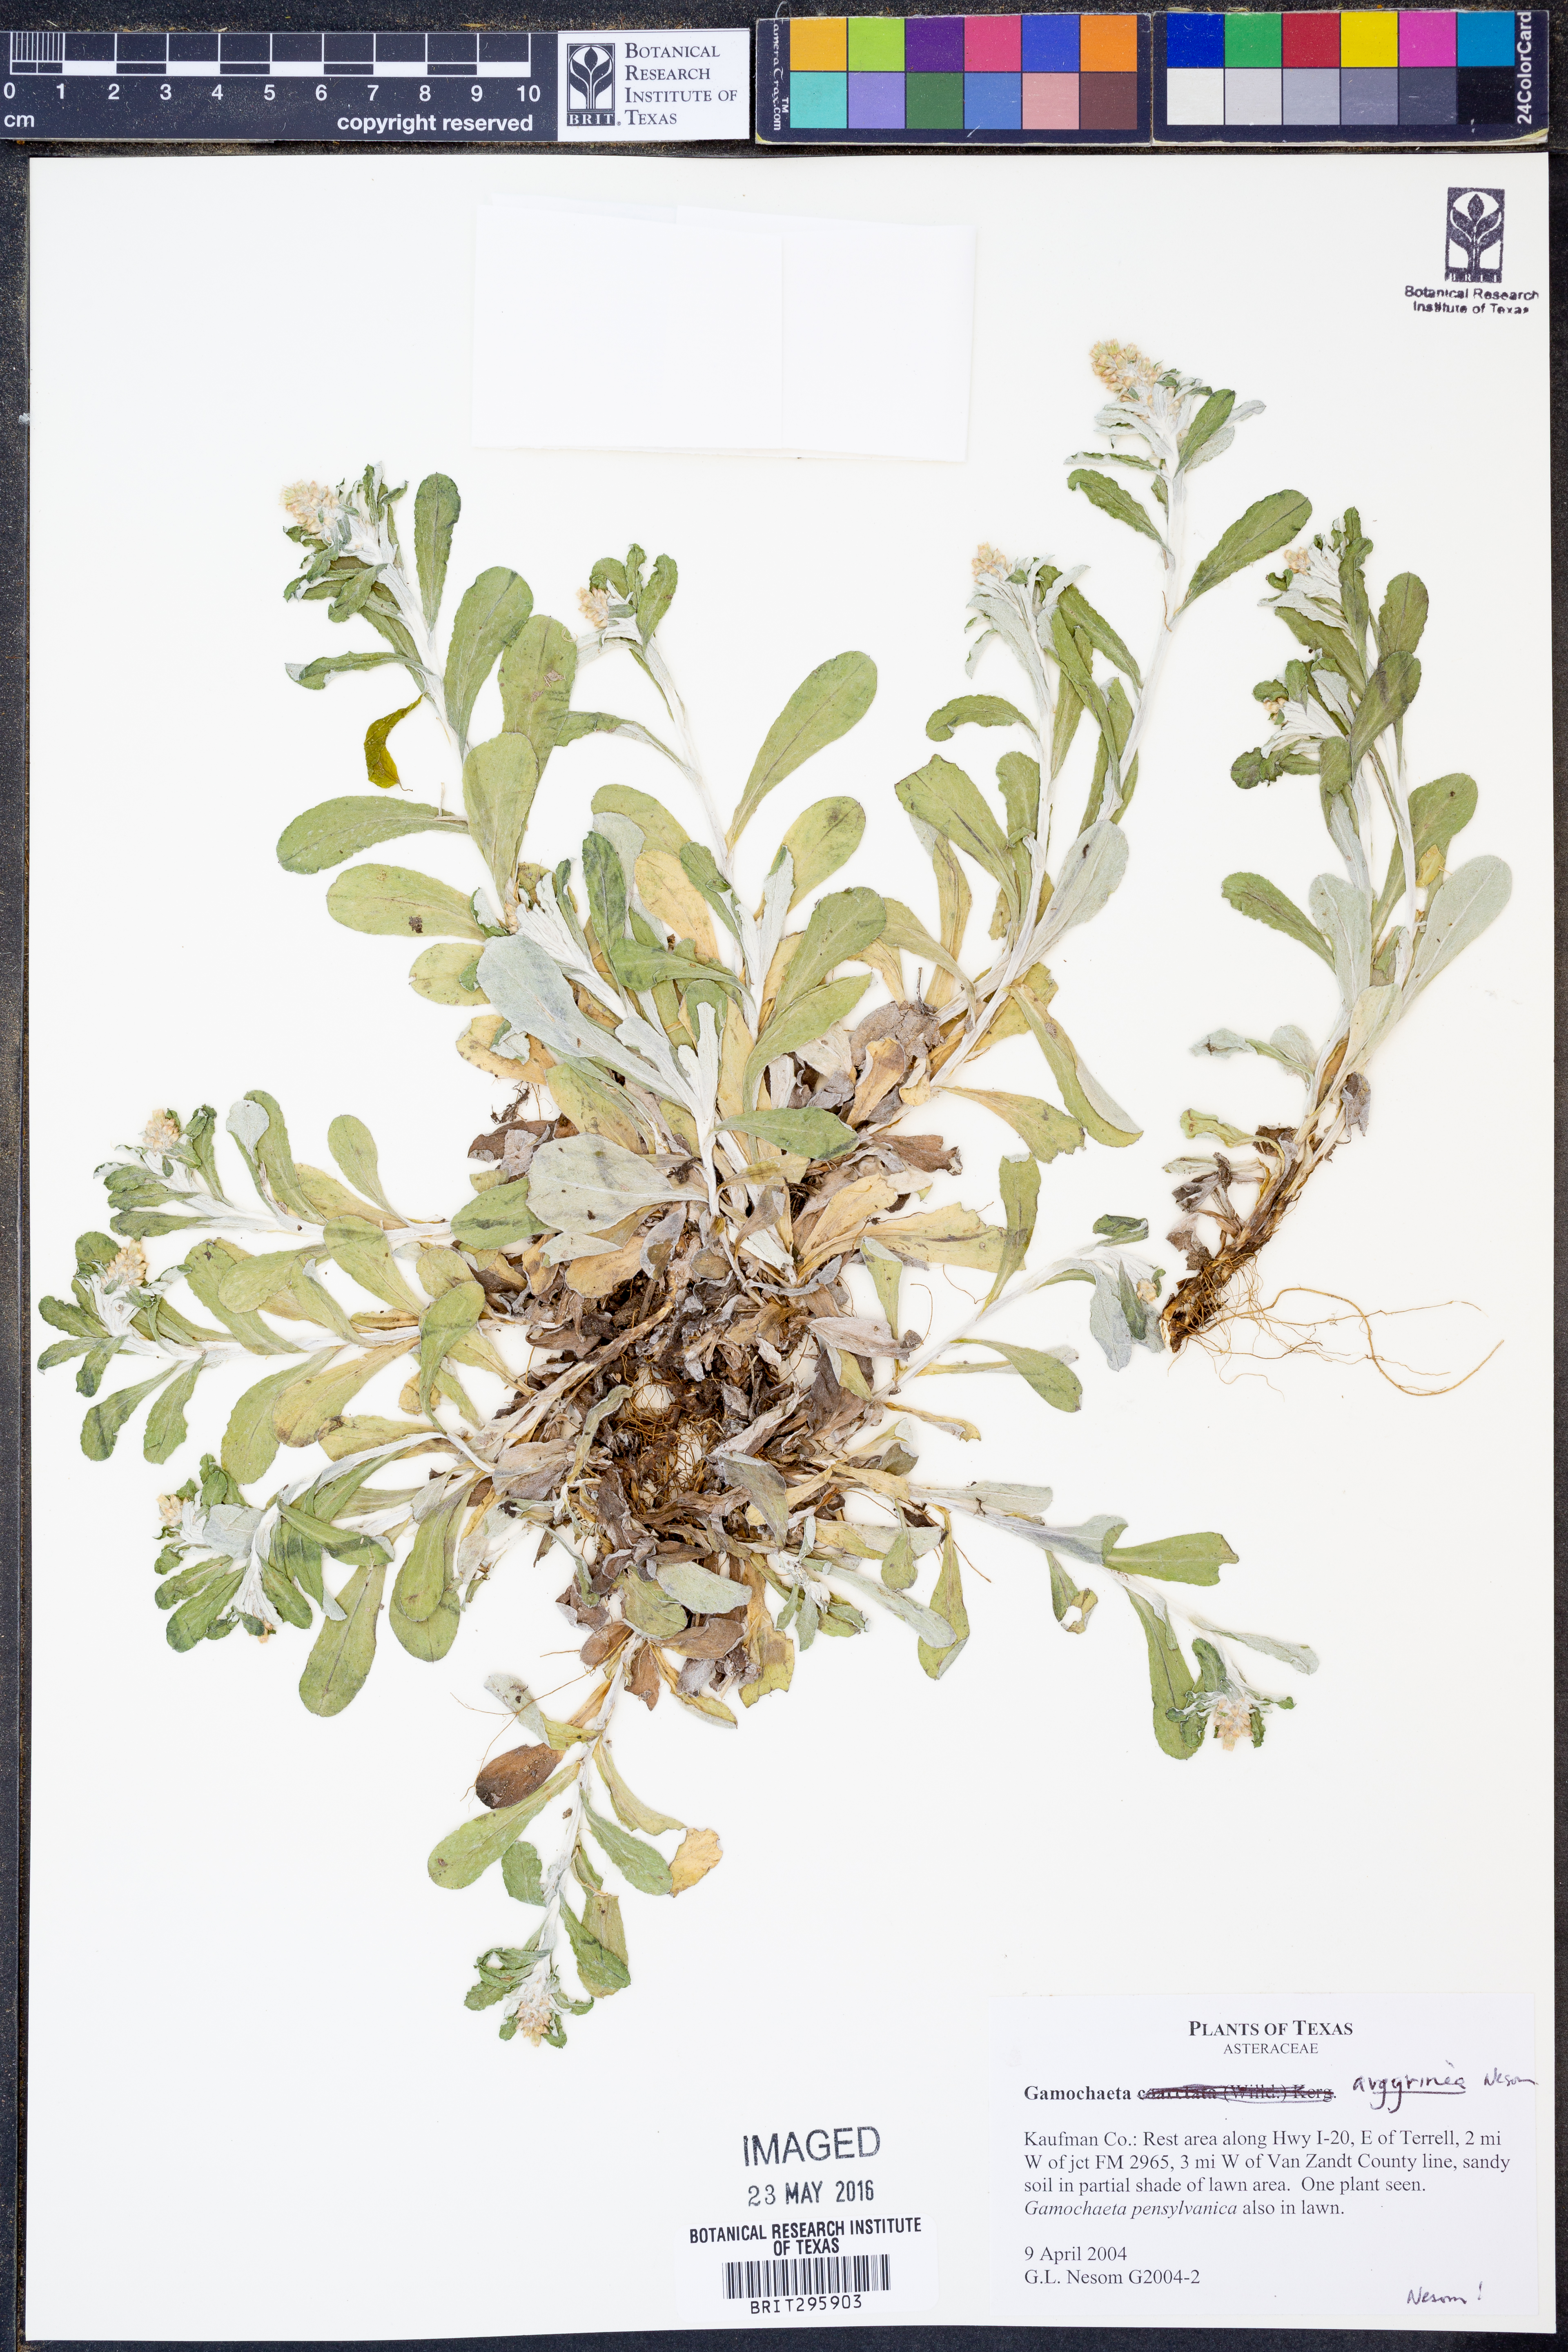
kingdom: Plantae
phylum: Tracheophyta
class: Magnoliopsida
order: Asterales
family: Asteraceae
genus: Gamochaeta
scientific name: Gamochaeta argyrinea
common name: Silvery cudweed
